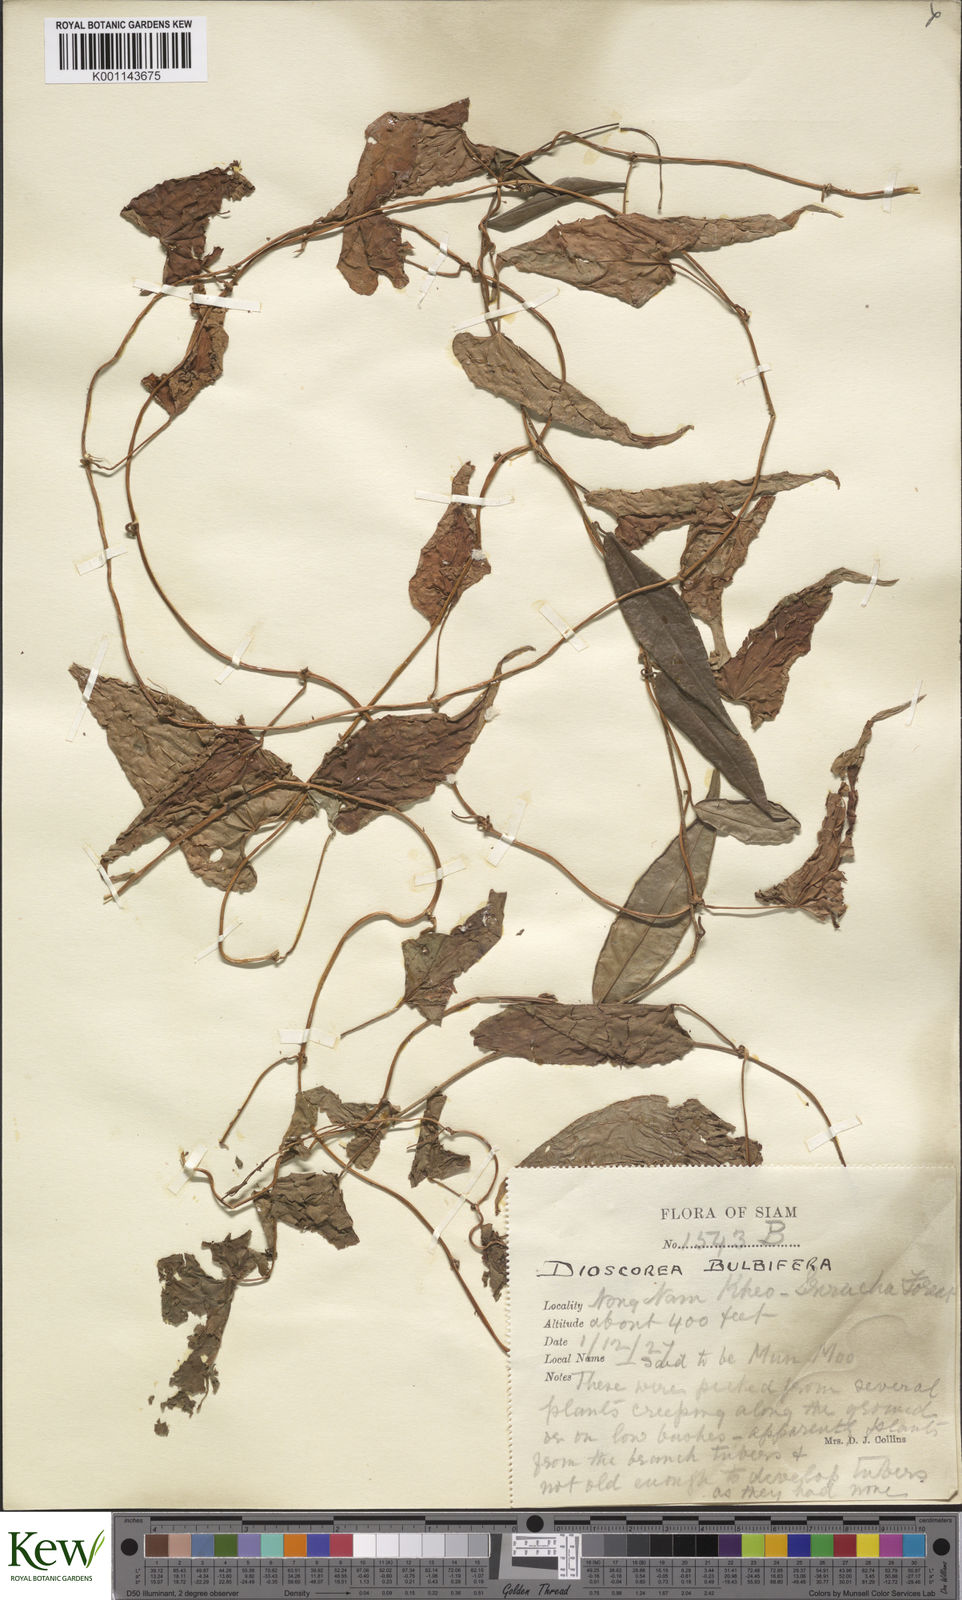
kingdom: Plantae
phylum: Tracheophyta
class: Liliopsida
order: Dioscoreales
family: Dioscoreaceae
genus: Dioscorea
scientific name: Dioscorea bulbifera
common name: Air yam
